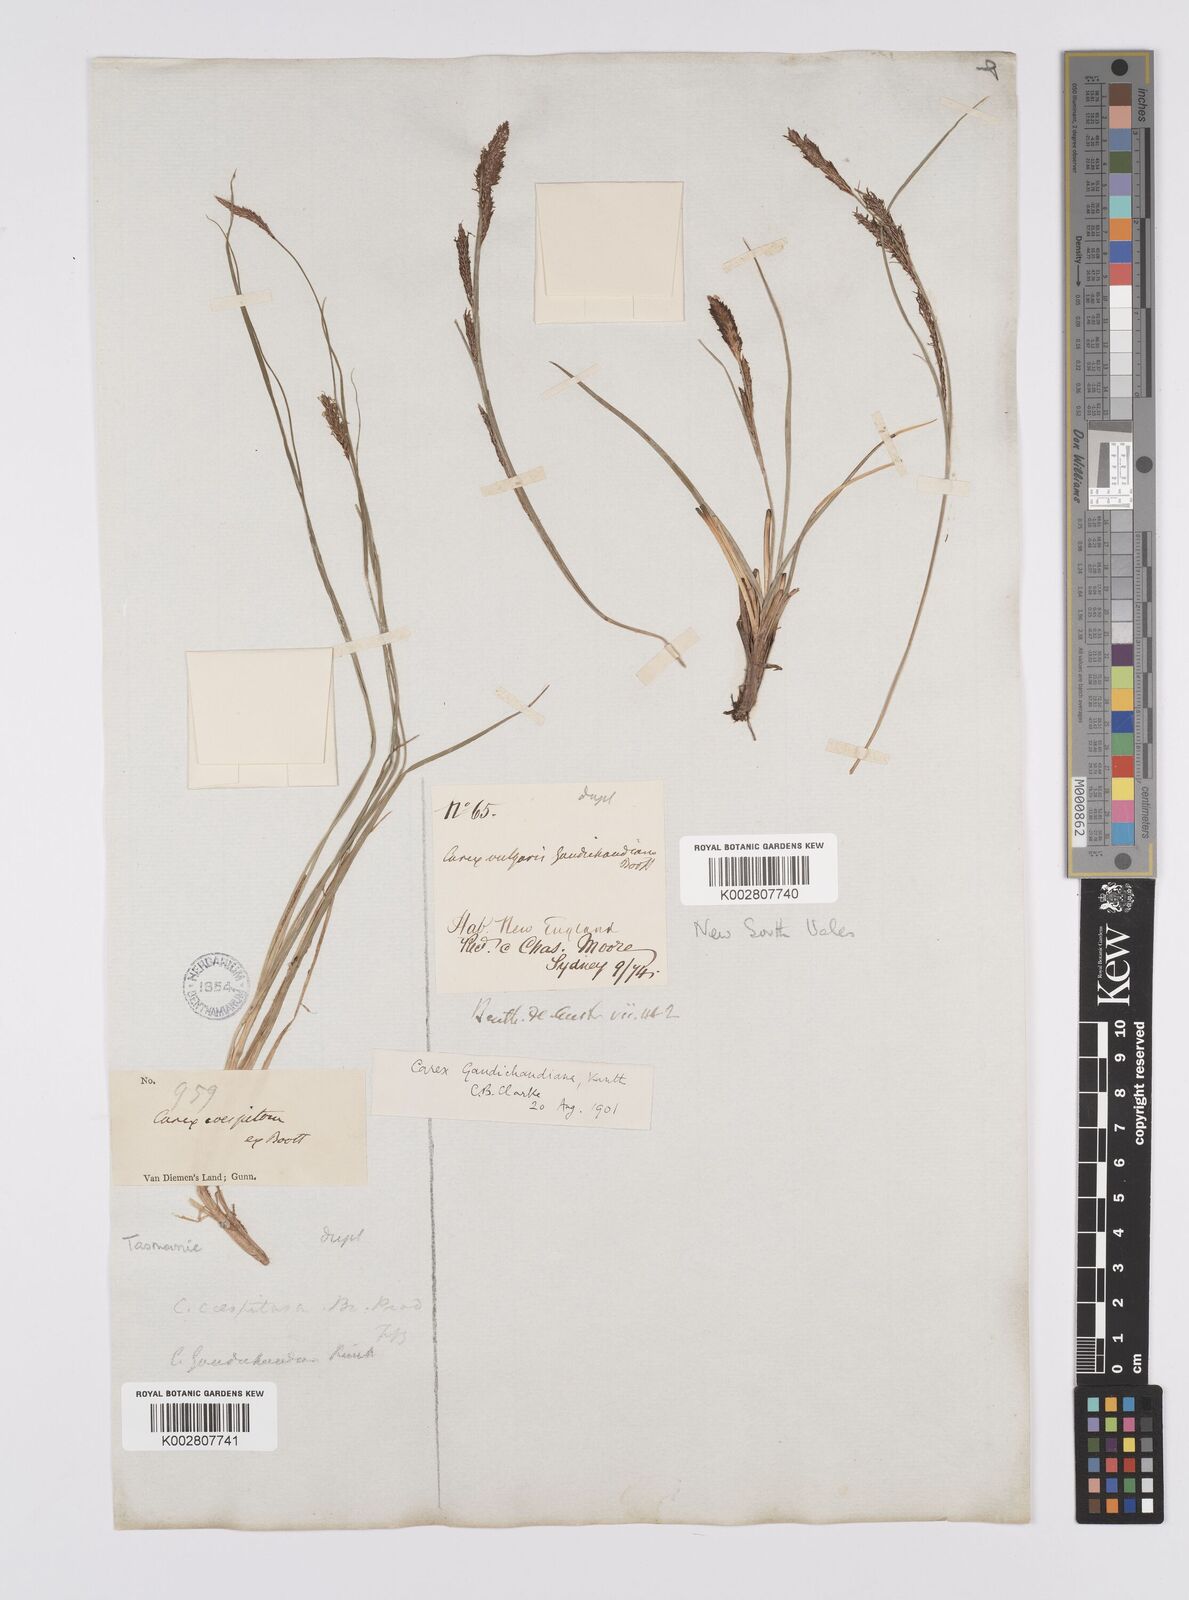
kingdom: Plantae
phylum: Tracheophyta
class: Liliopsida
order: Poales
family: Cyperaceae
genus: Carex
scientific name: Carex gaudichaudiana
